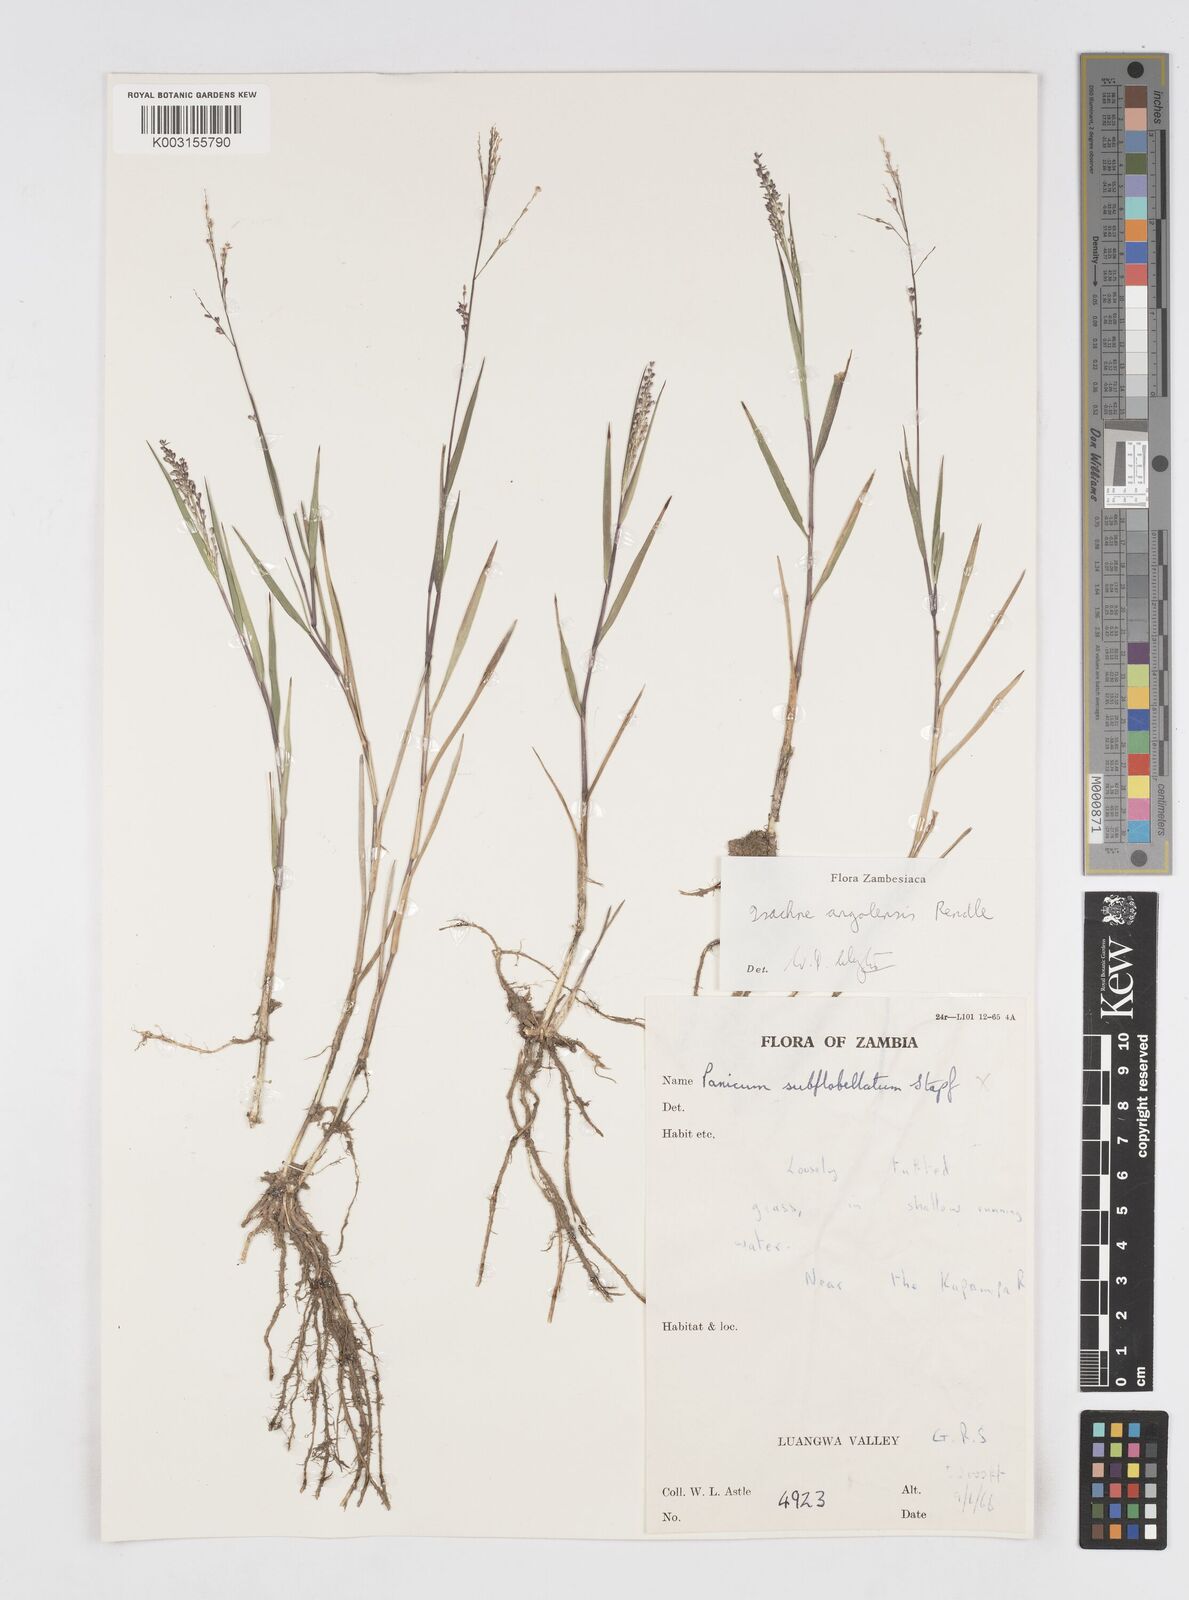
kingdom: Plantae
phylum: Tracheophyta
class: Liliopsida
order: Poales
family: Poaceae
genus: Isachne
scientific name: Isachne angolensis
